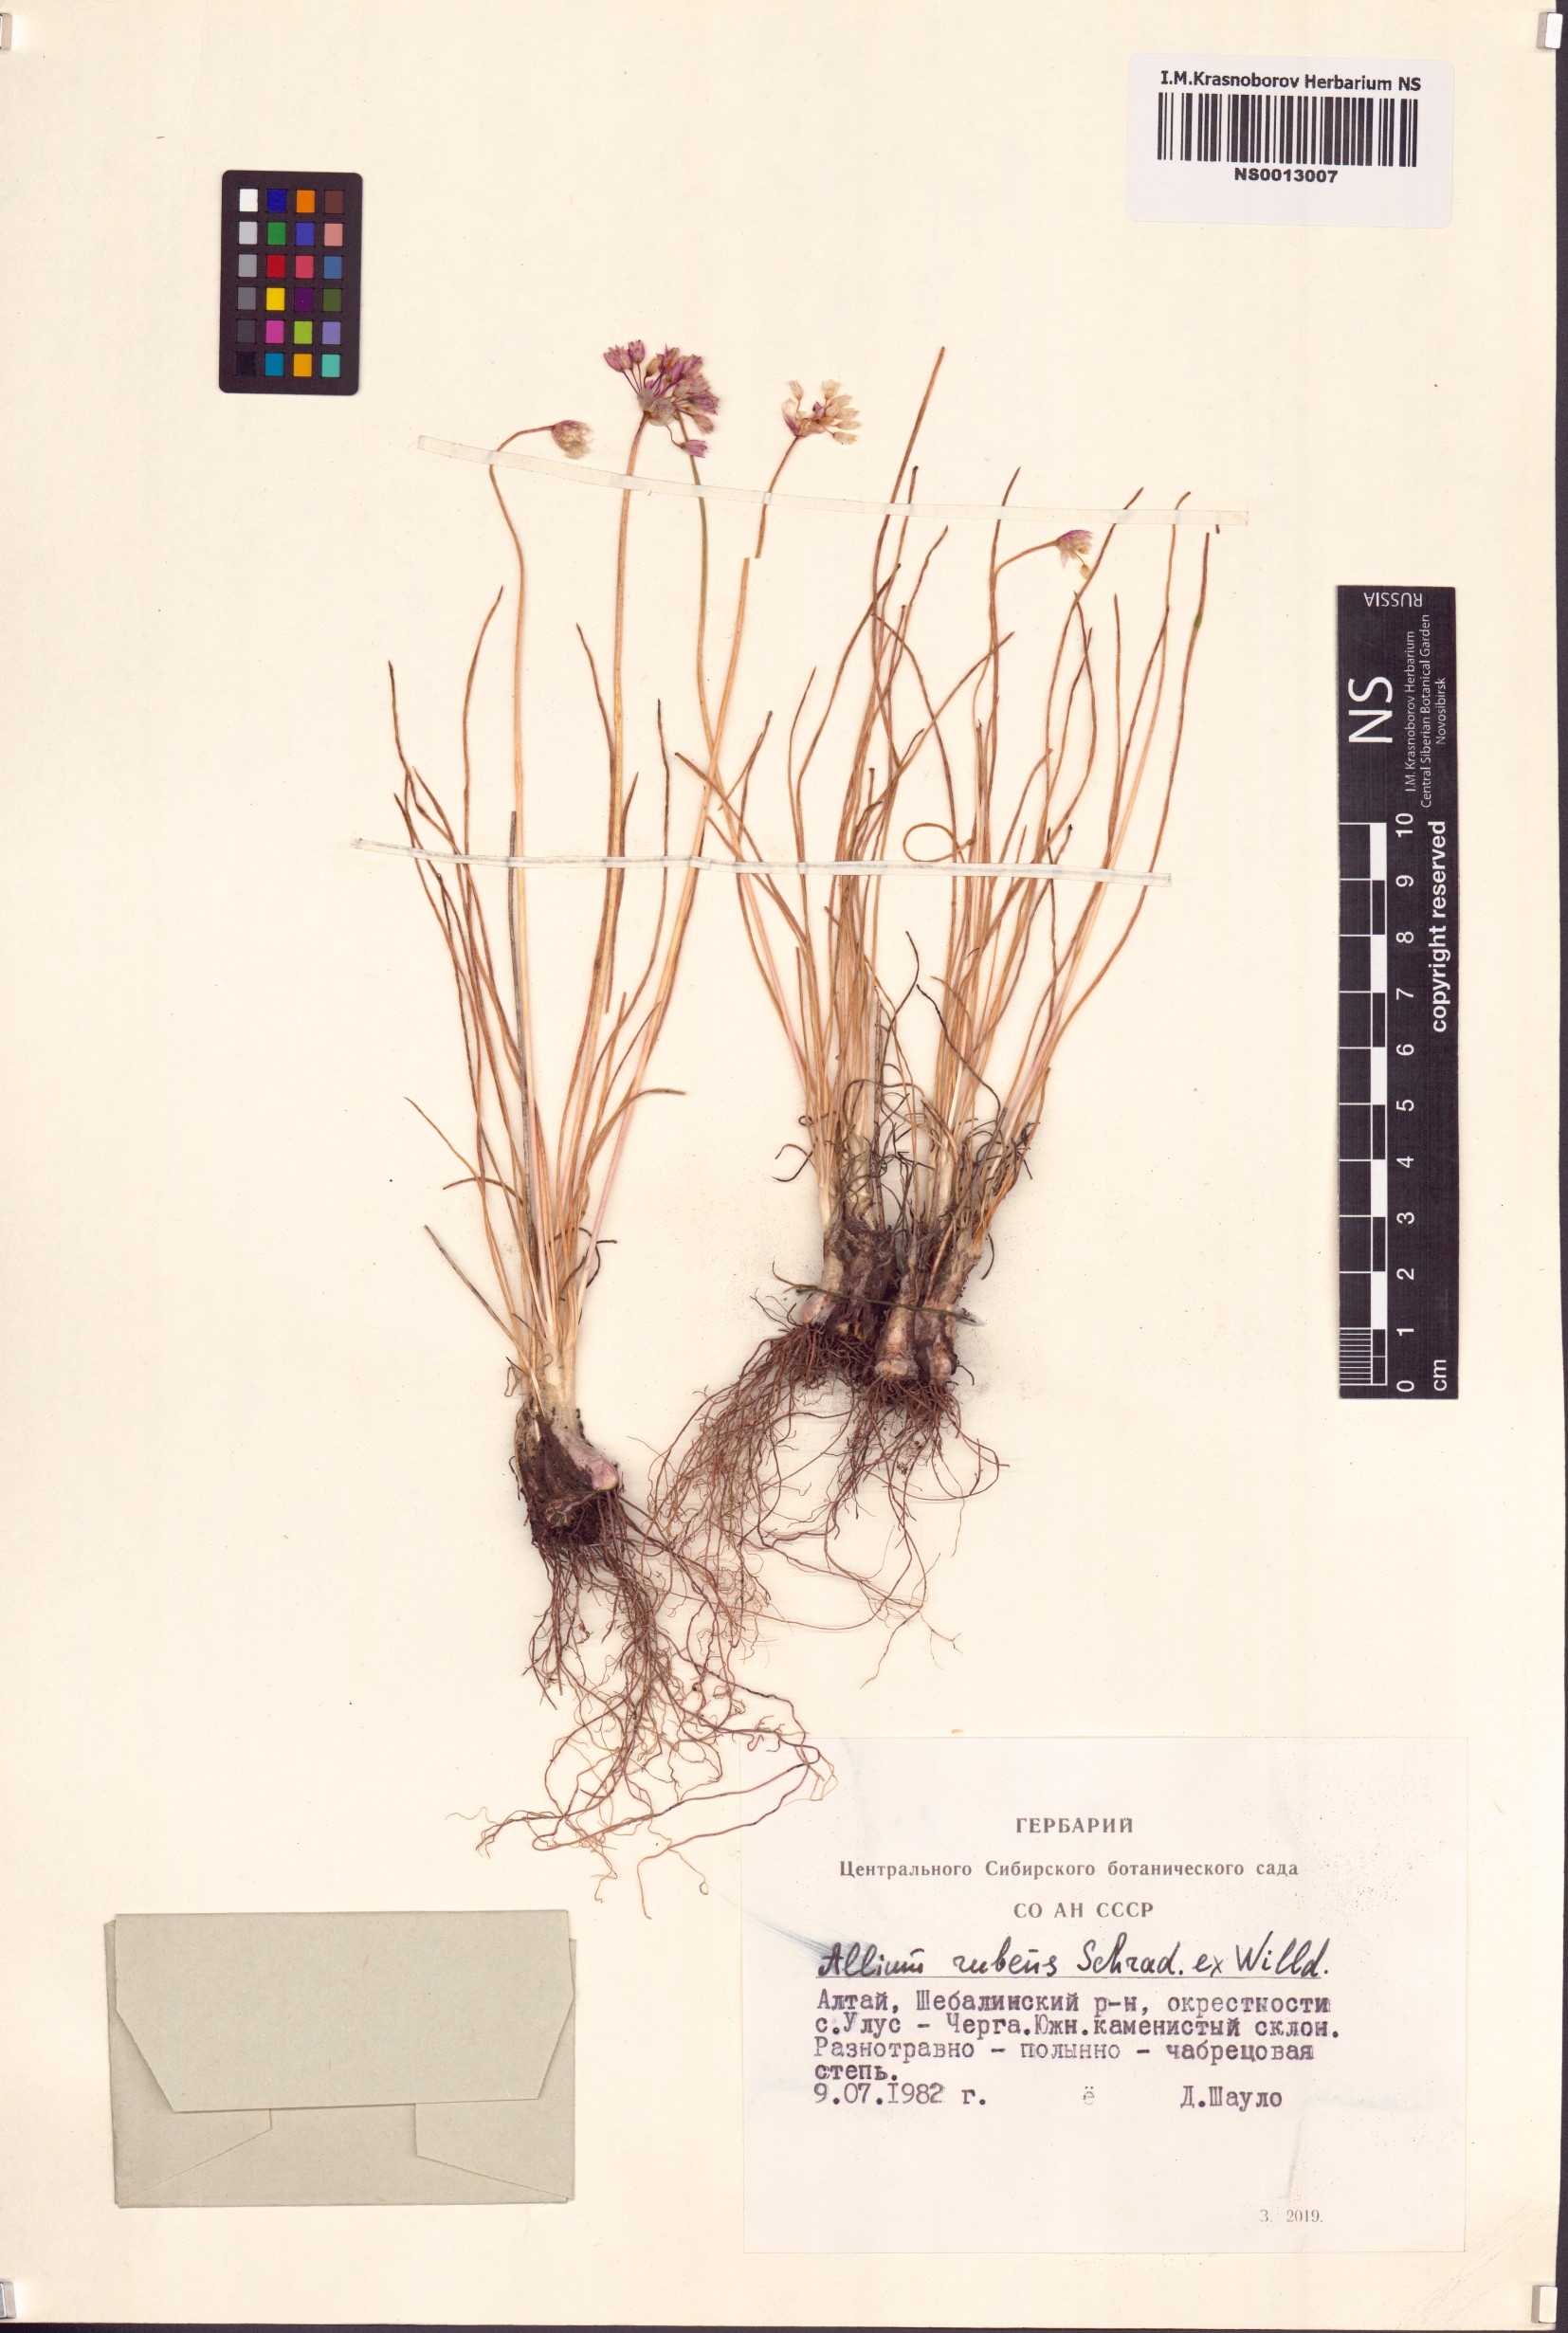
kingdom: Plantae
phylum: Tracheophyta
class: Liliopsida
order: Asparagales
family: Amaryllidaceae
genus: Allium
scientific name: Allium rubens
